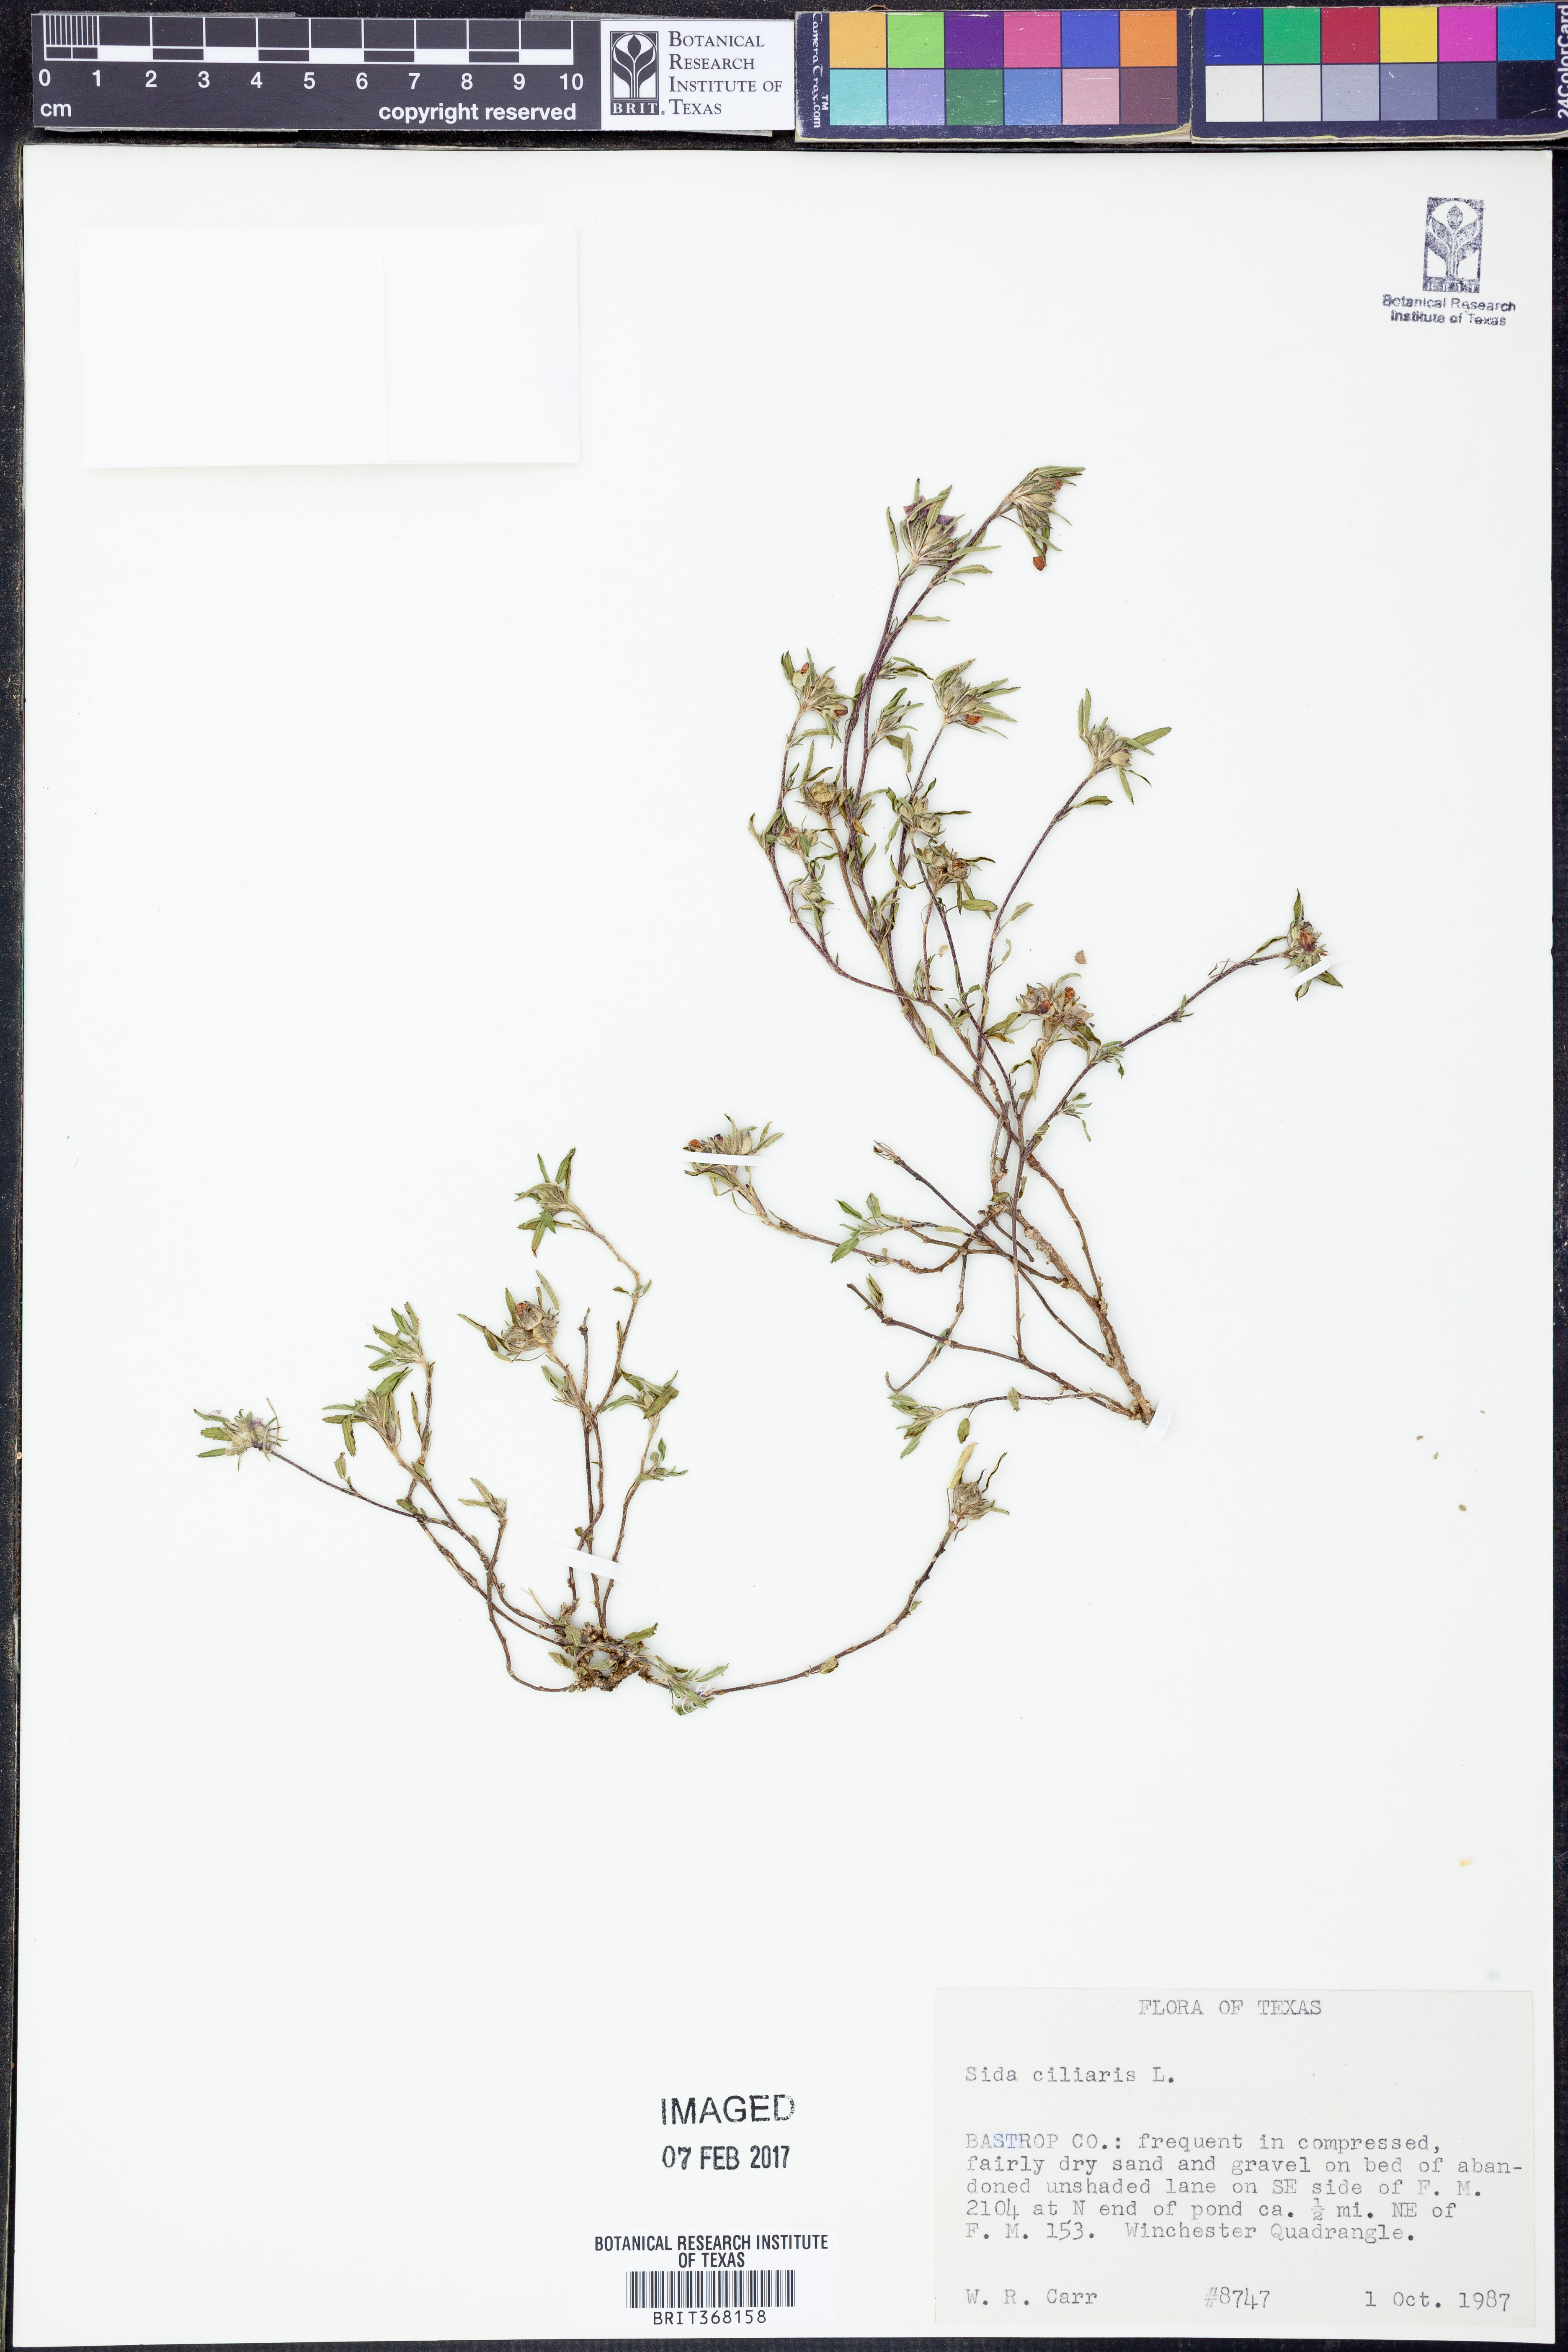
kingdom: Plantae
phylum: Tracheophyta
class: Magnoliopsida
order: Malvales
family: Malvaceae
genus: Sida
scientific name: Sida ciliaris
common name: Bracted fanpetals
